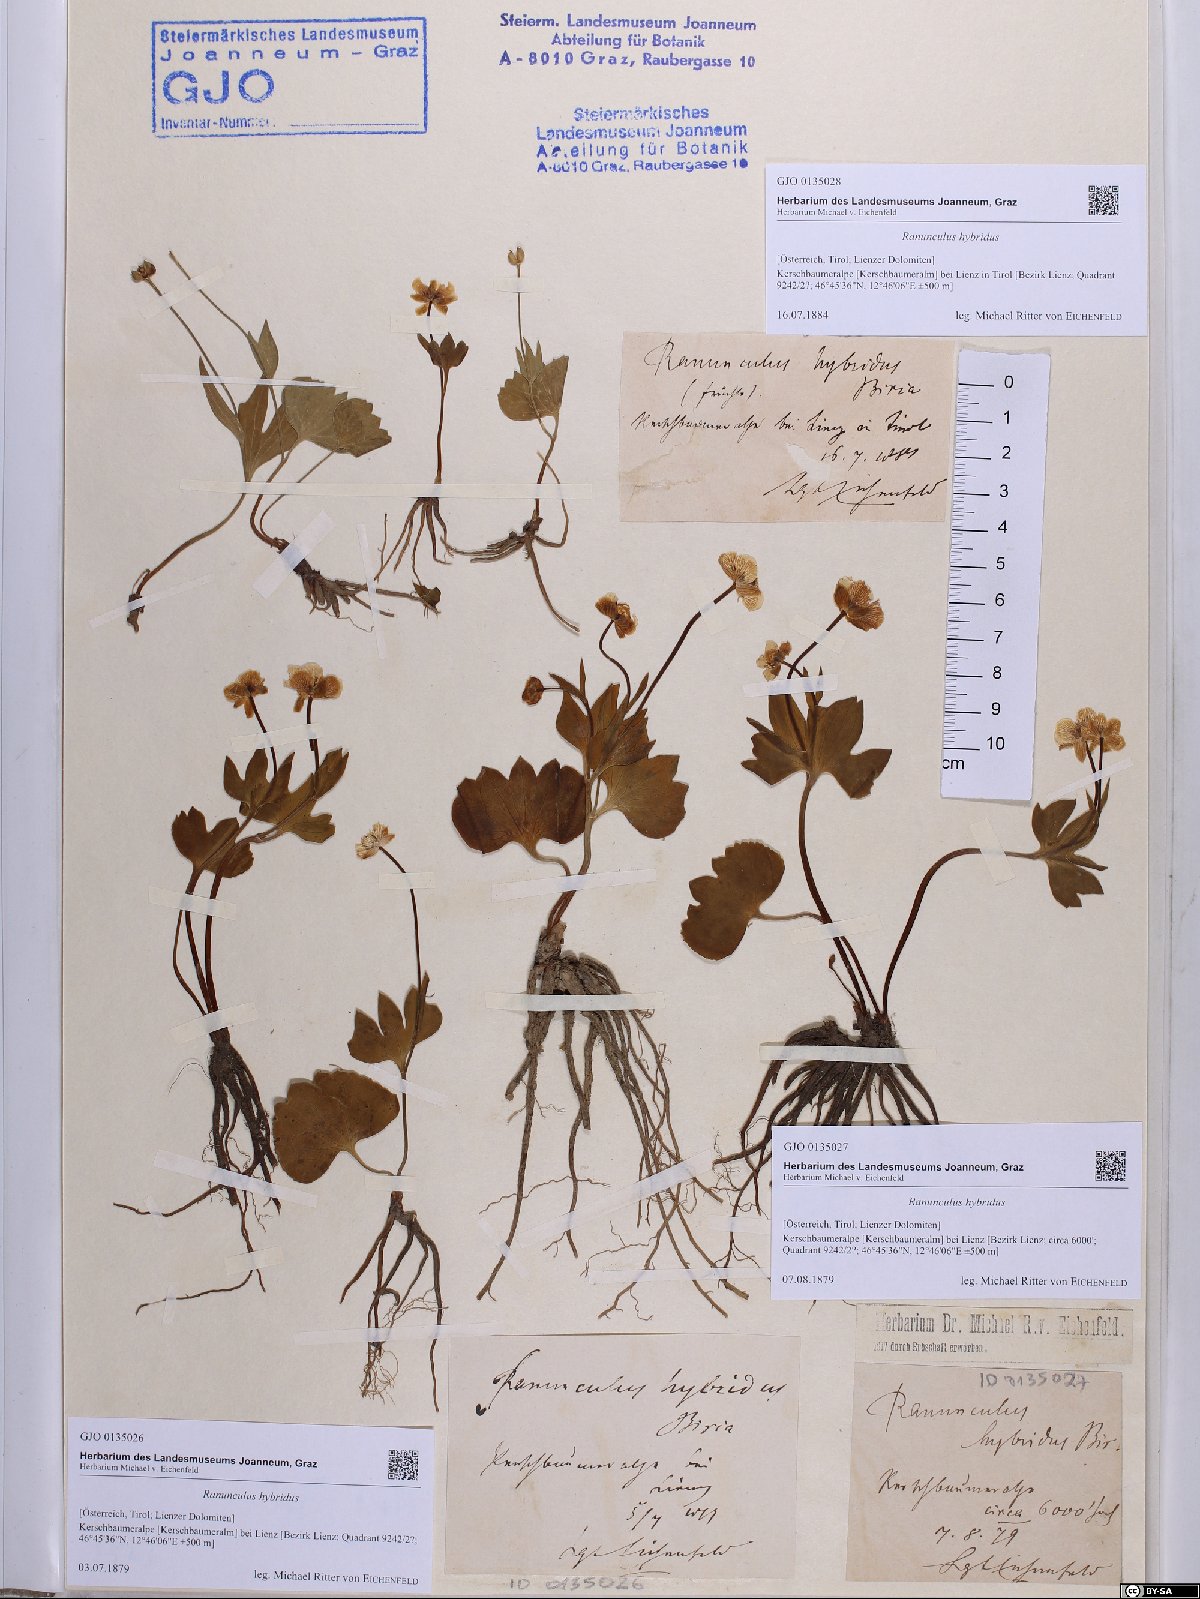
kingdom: Plantae
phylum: Tracheophyta
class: Magnoliopsida
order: Ranunculales
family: Ranunculaceae
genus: Ranunculus
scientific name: Ranunculus hybridus
